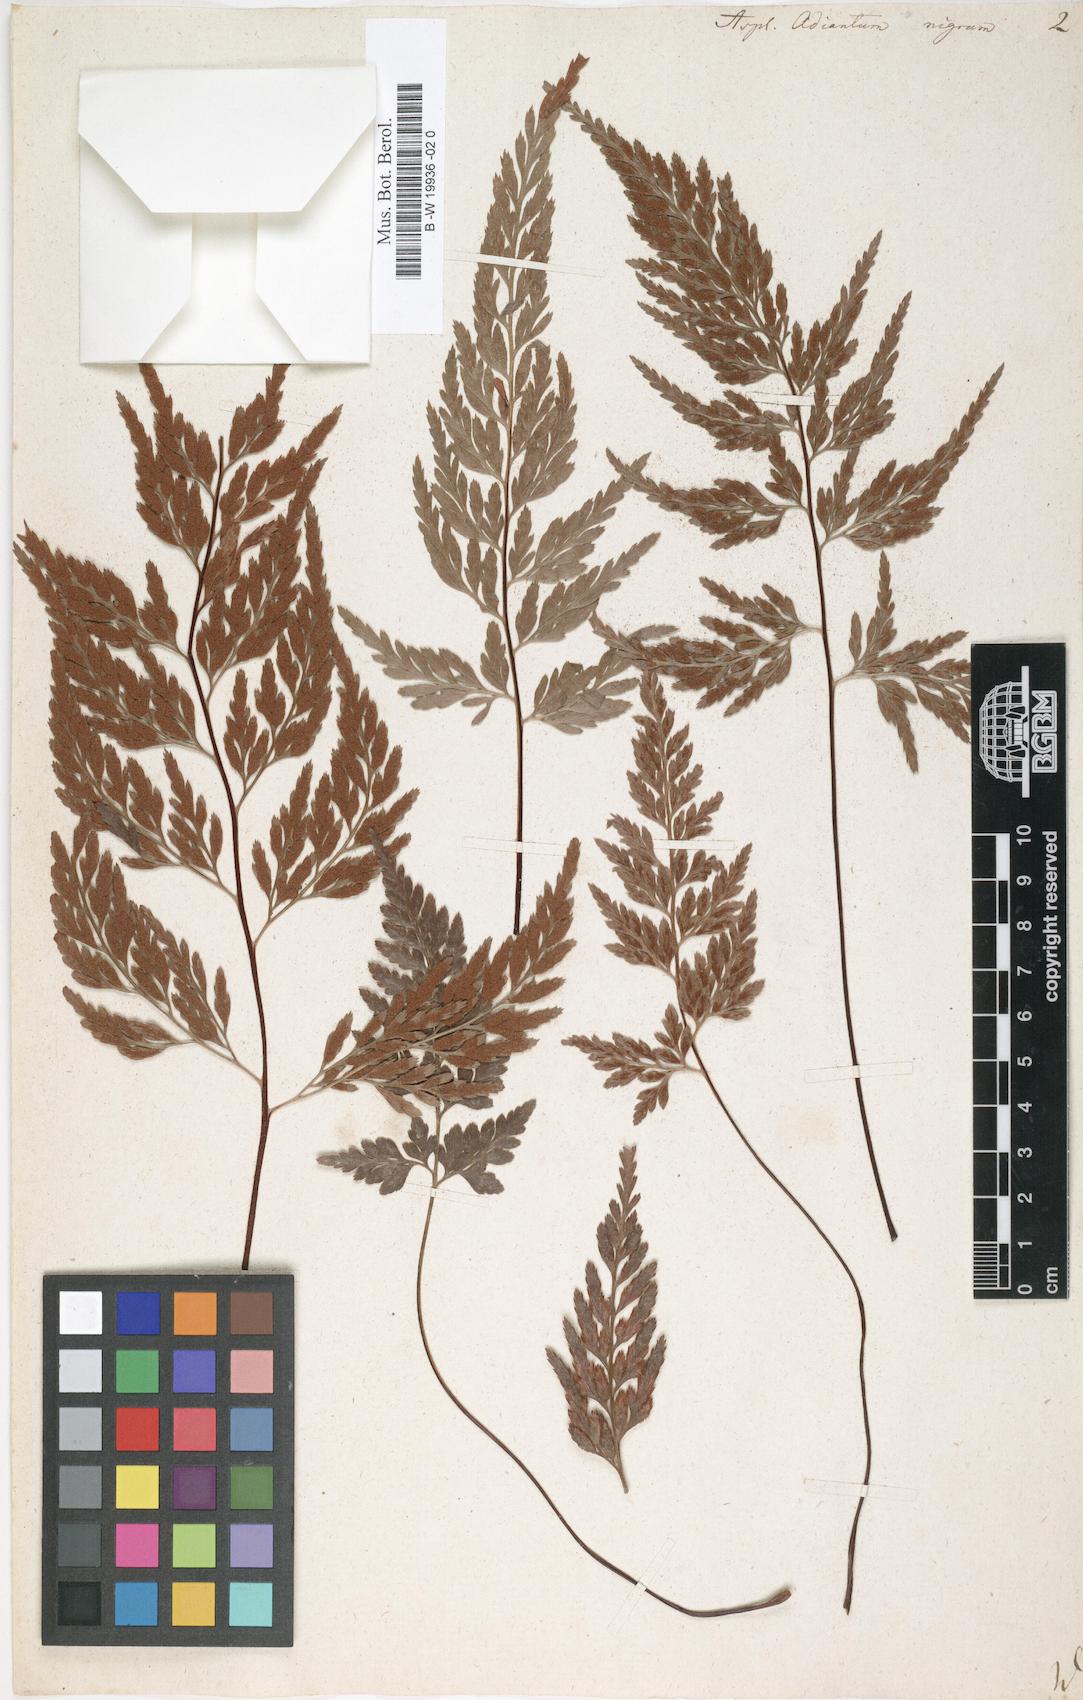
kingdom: Plantae
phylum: Tracheophyta
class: Polypodiopsida
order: Polypodiales
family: Aspleniaceae
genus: Asplenium
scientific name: Asplenium adiantum-nigrum
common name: Black spleenwort
